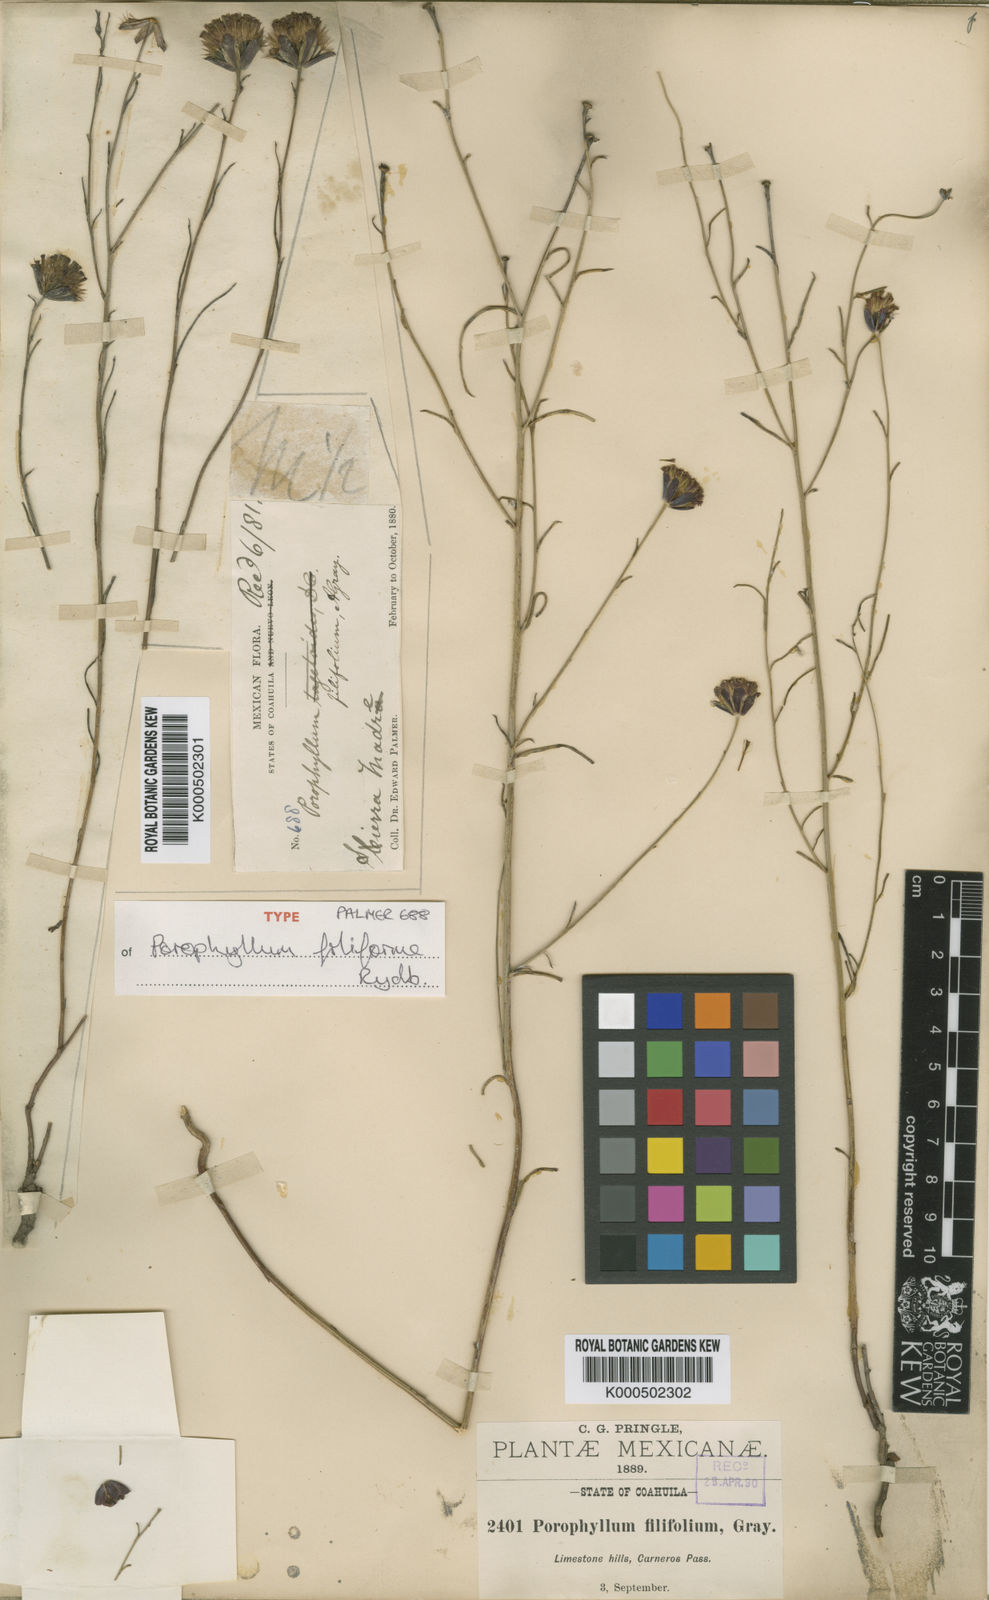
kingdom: Plantae
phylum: Tracheophyta
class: Magnoliopsida
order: Asterales
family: Asteraceae
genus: Porophyllum
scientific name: Porophyllum filiforme
